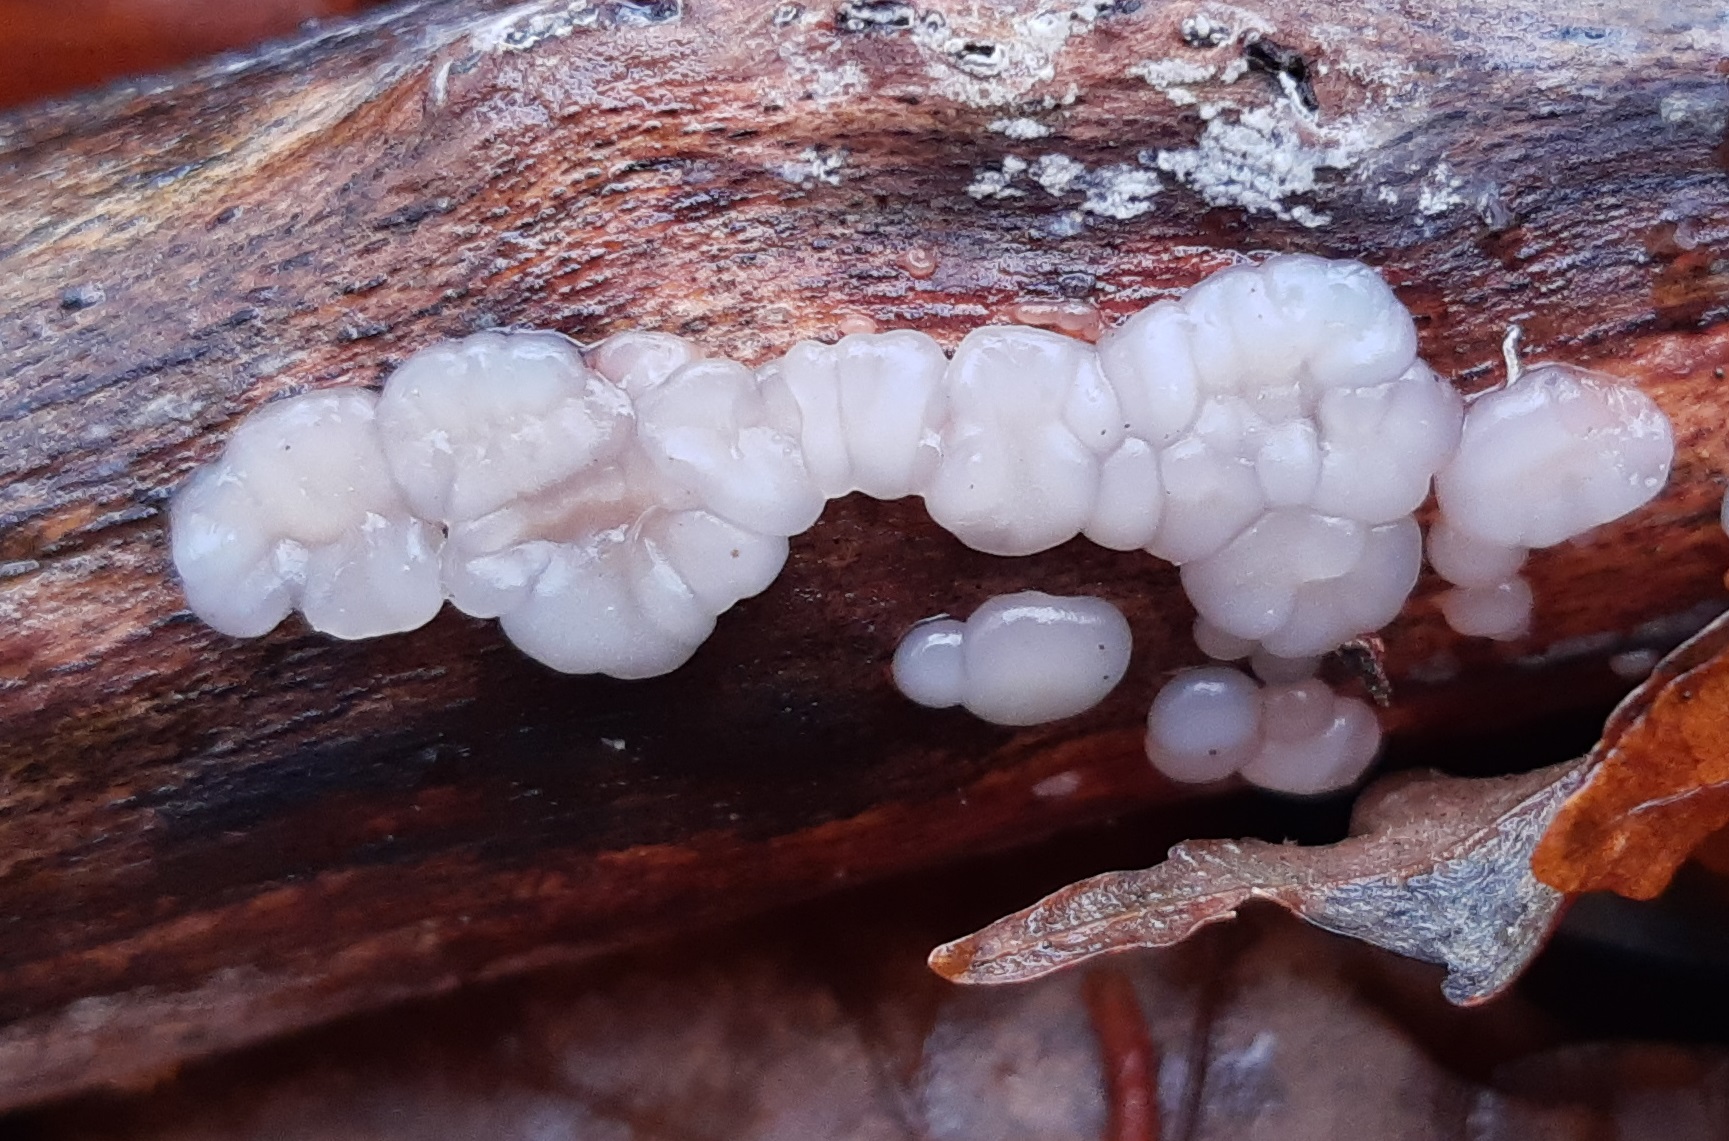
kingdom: Fungi
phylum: Basidiomycota
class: Agaricomycetes
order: Auriculariales
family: Auriculariaceae
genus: Exidia
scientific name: Exidia thuretiana
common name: hvidlig bævretop
